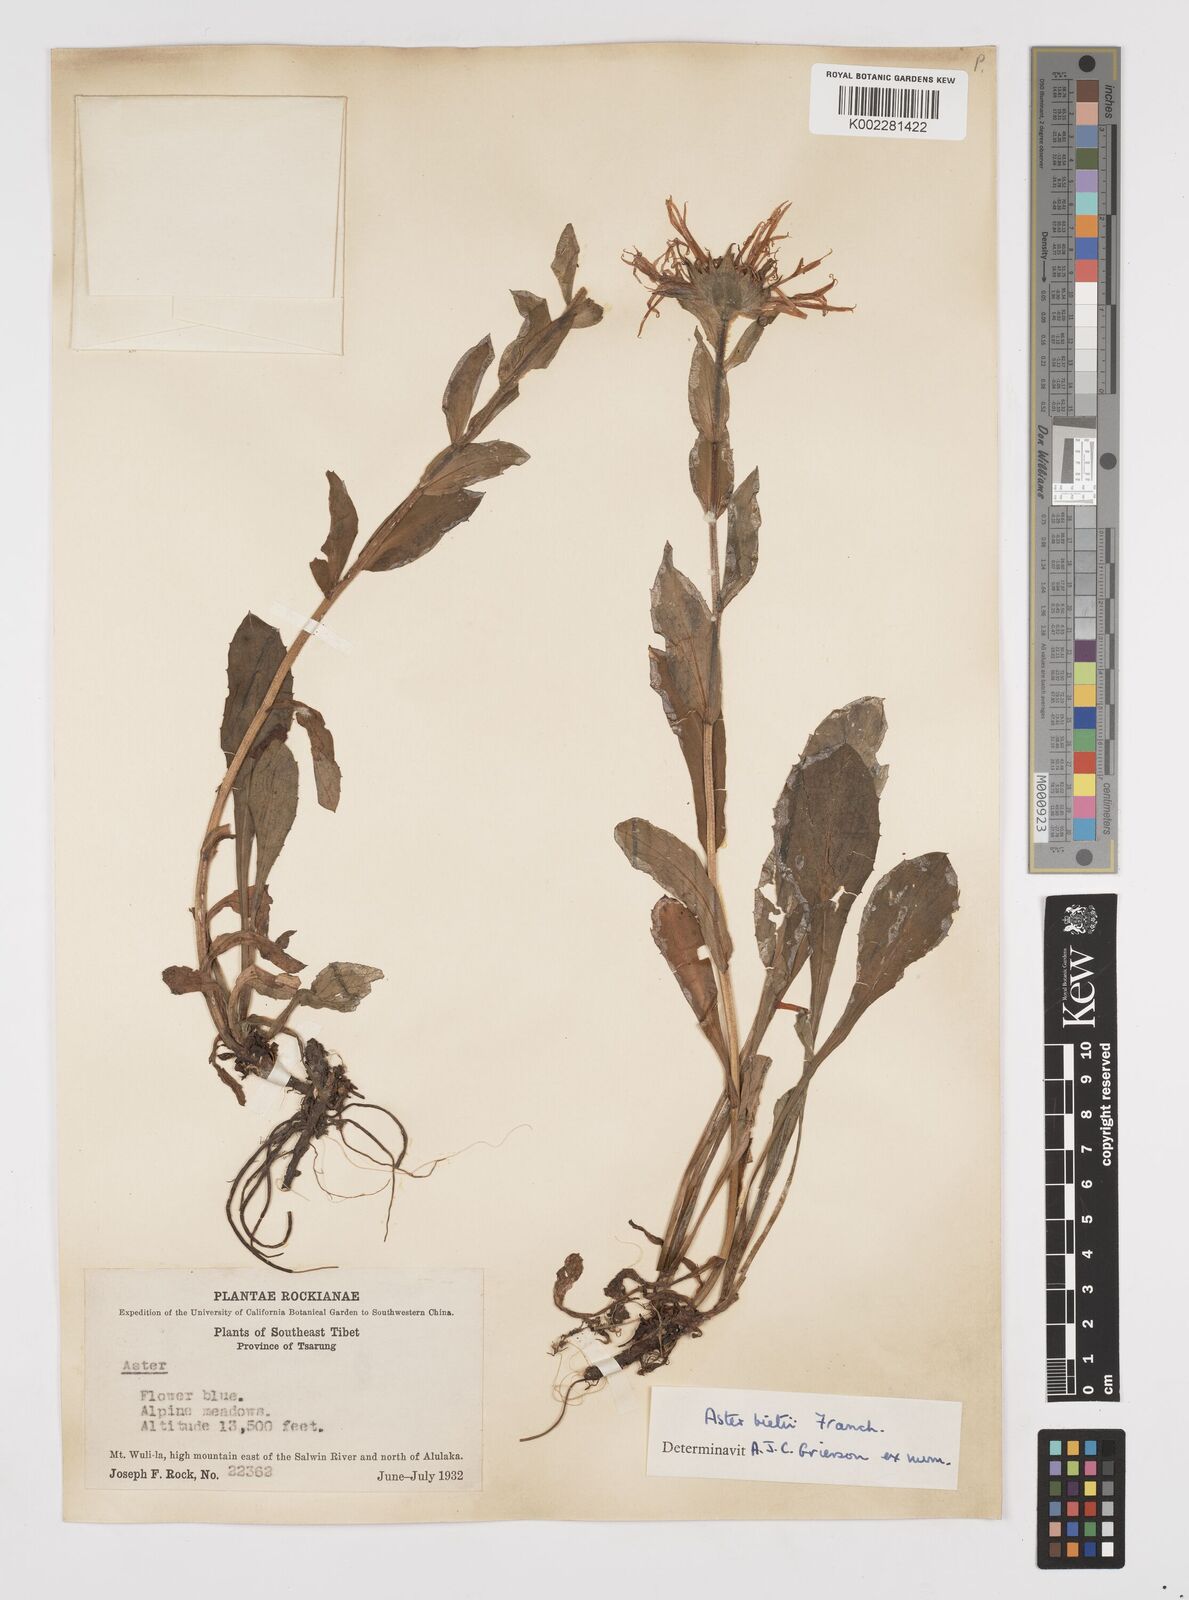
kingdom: Plantae
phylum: Tracheophyta
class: Magnoliopsida
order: Asterales
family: Asteraceae
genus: Tibetiodes
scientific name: Tibetiodes bietii
